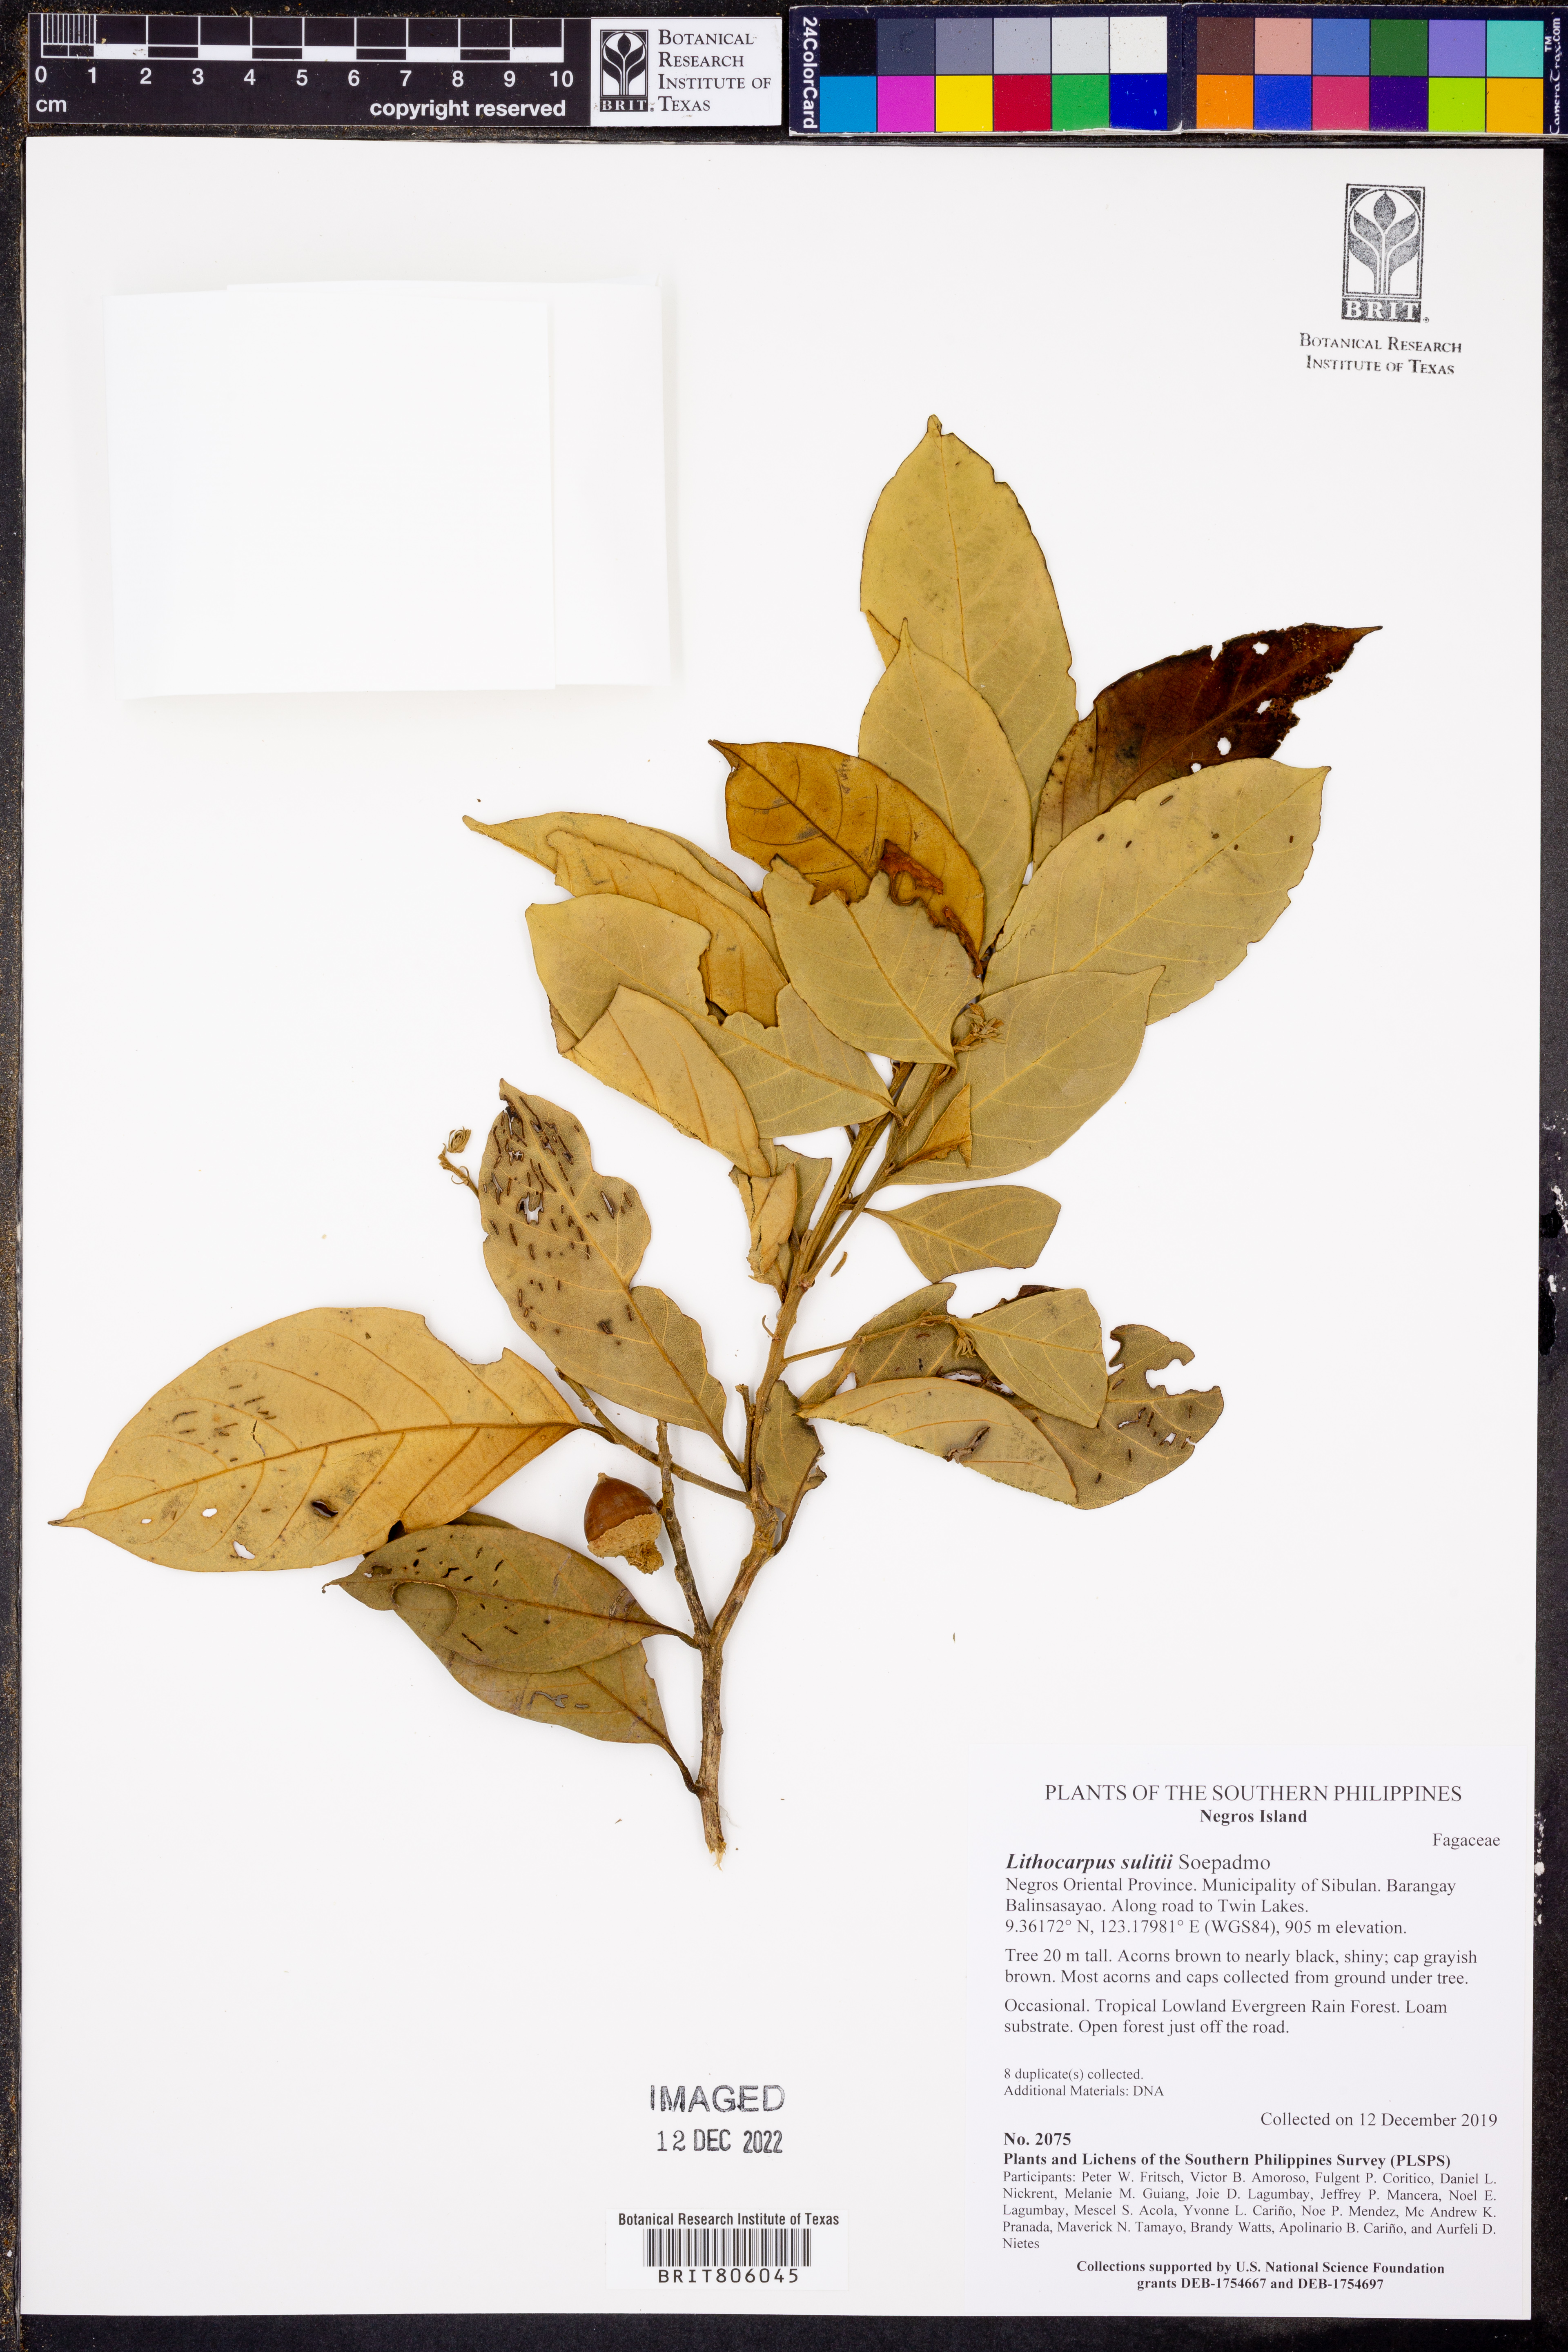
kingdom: Plantae
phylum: Tracheophyta
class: Magnoliopsida
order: Fagales
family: Fagaceae
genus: Lithocarpus
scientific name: Lithocarpus sulitii
